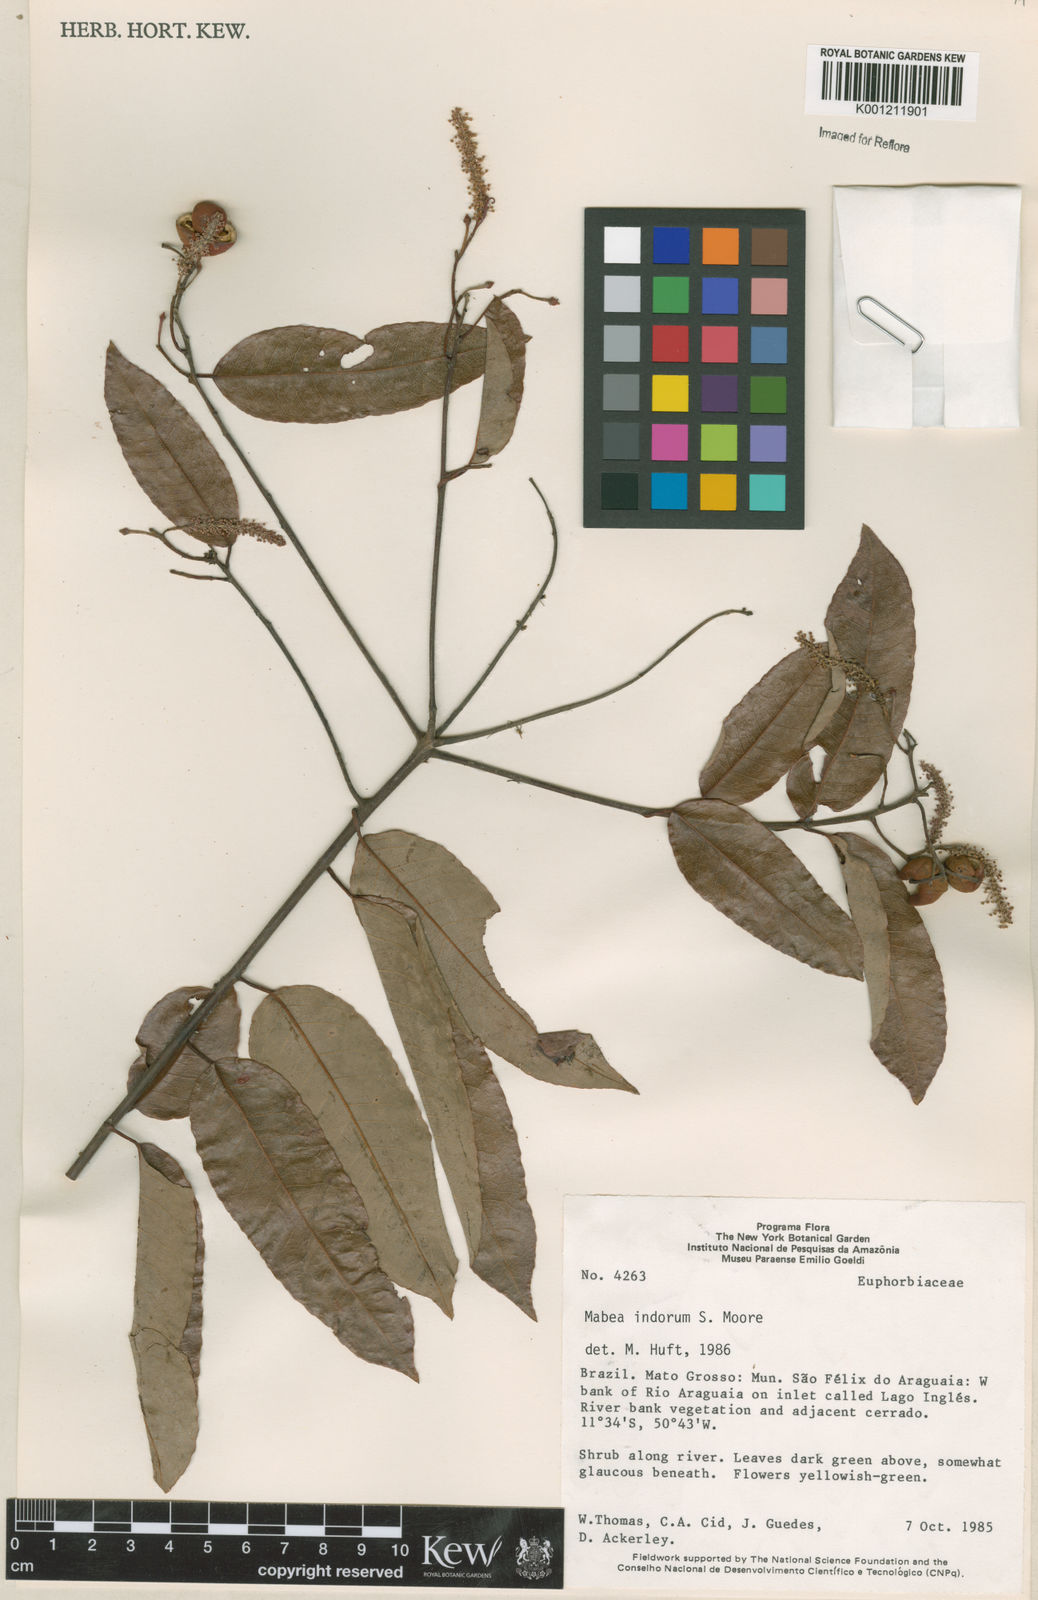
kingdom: Plantae
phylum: Tracheophyta
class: Magnoliopsida
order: Malpighiales
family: Euphorbiaceae
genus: Mabea
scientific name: Mabea paniculata
